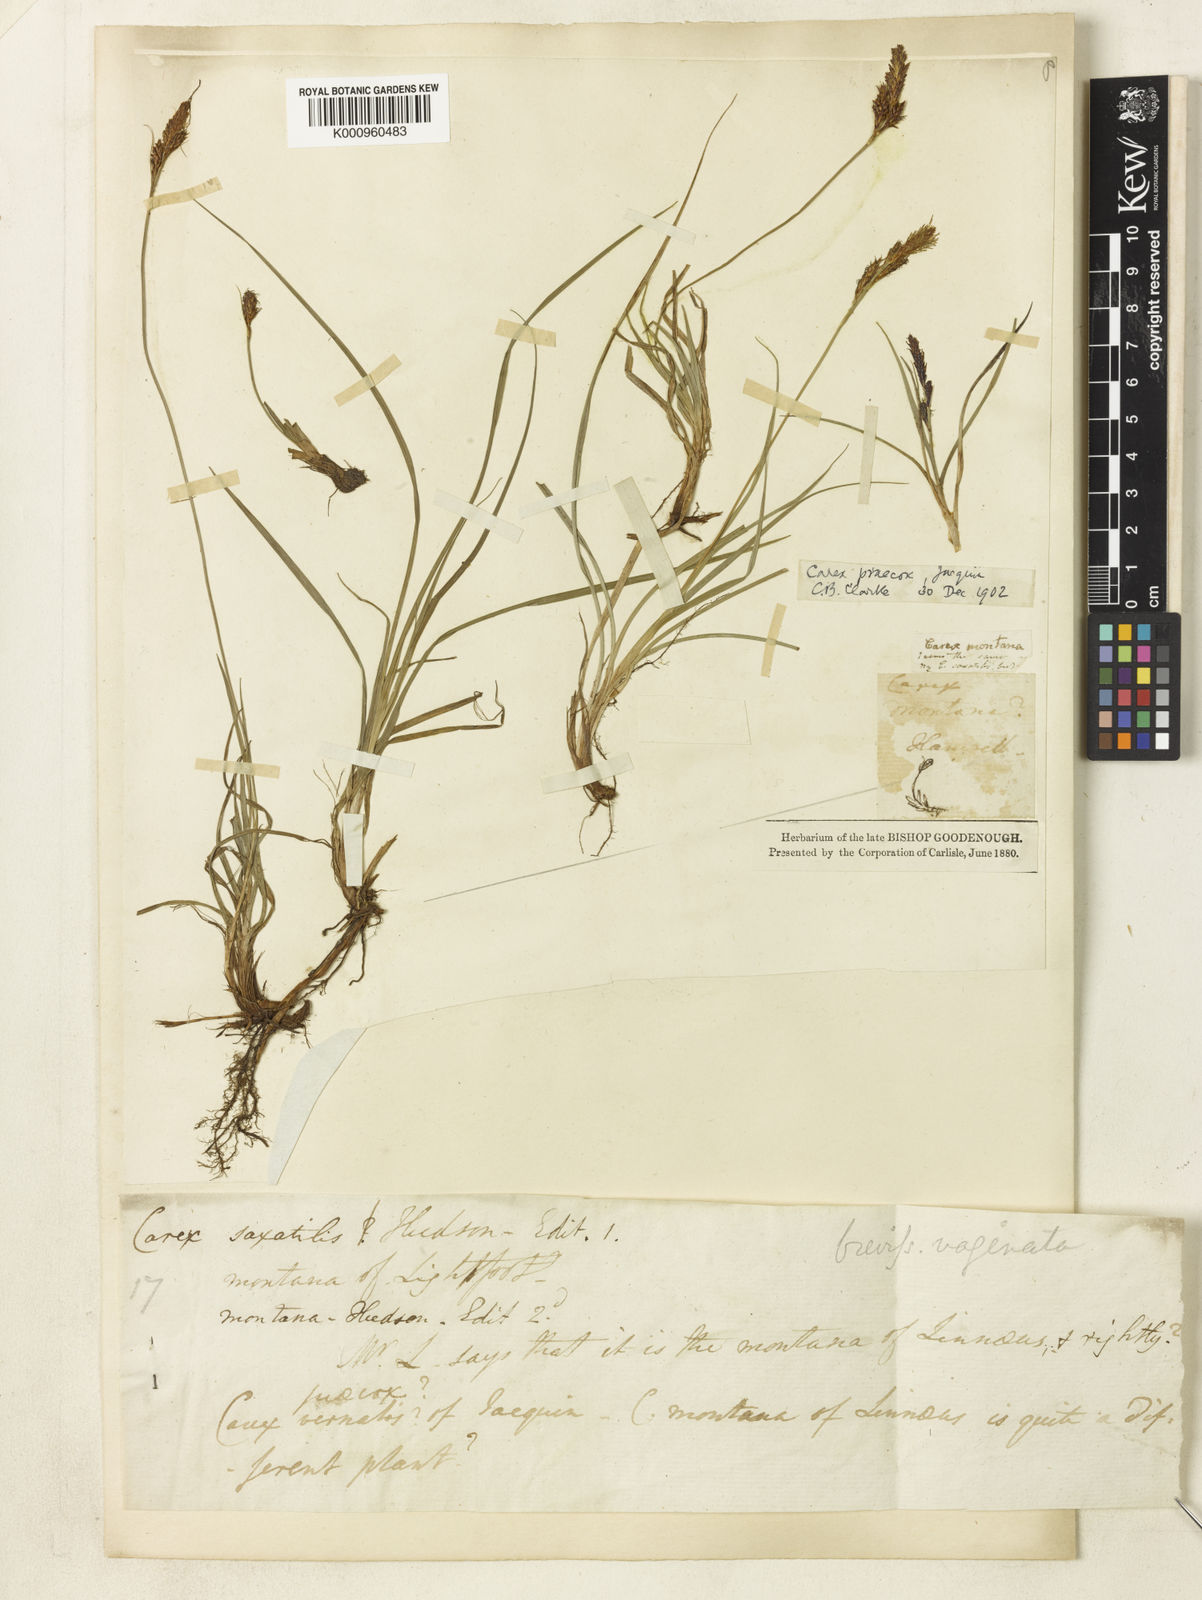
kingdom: Plantae
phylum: Tracheophyta
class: Liliopsida
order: Poales
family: Cyperaceae
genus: Carex
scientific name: Carex caryophyllea
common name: Spring sedge
